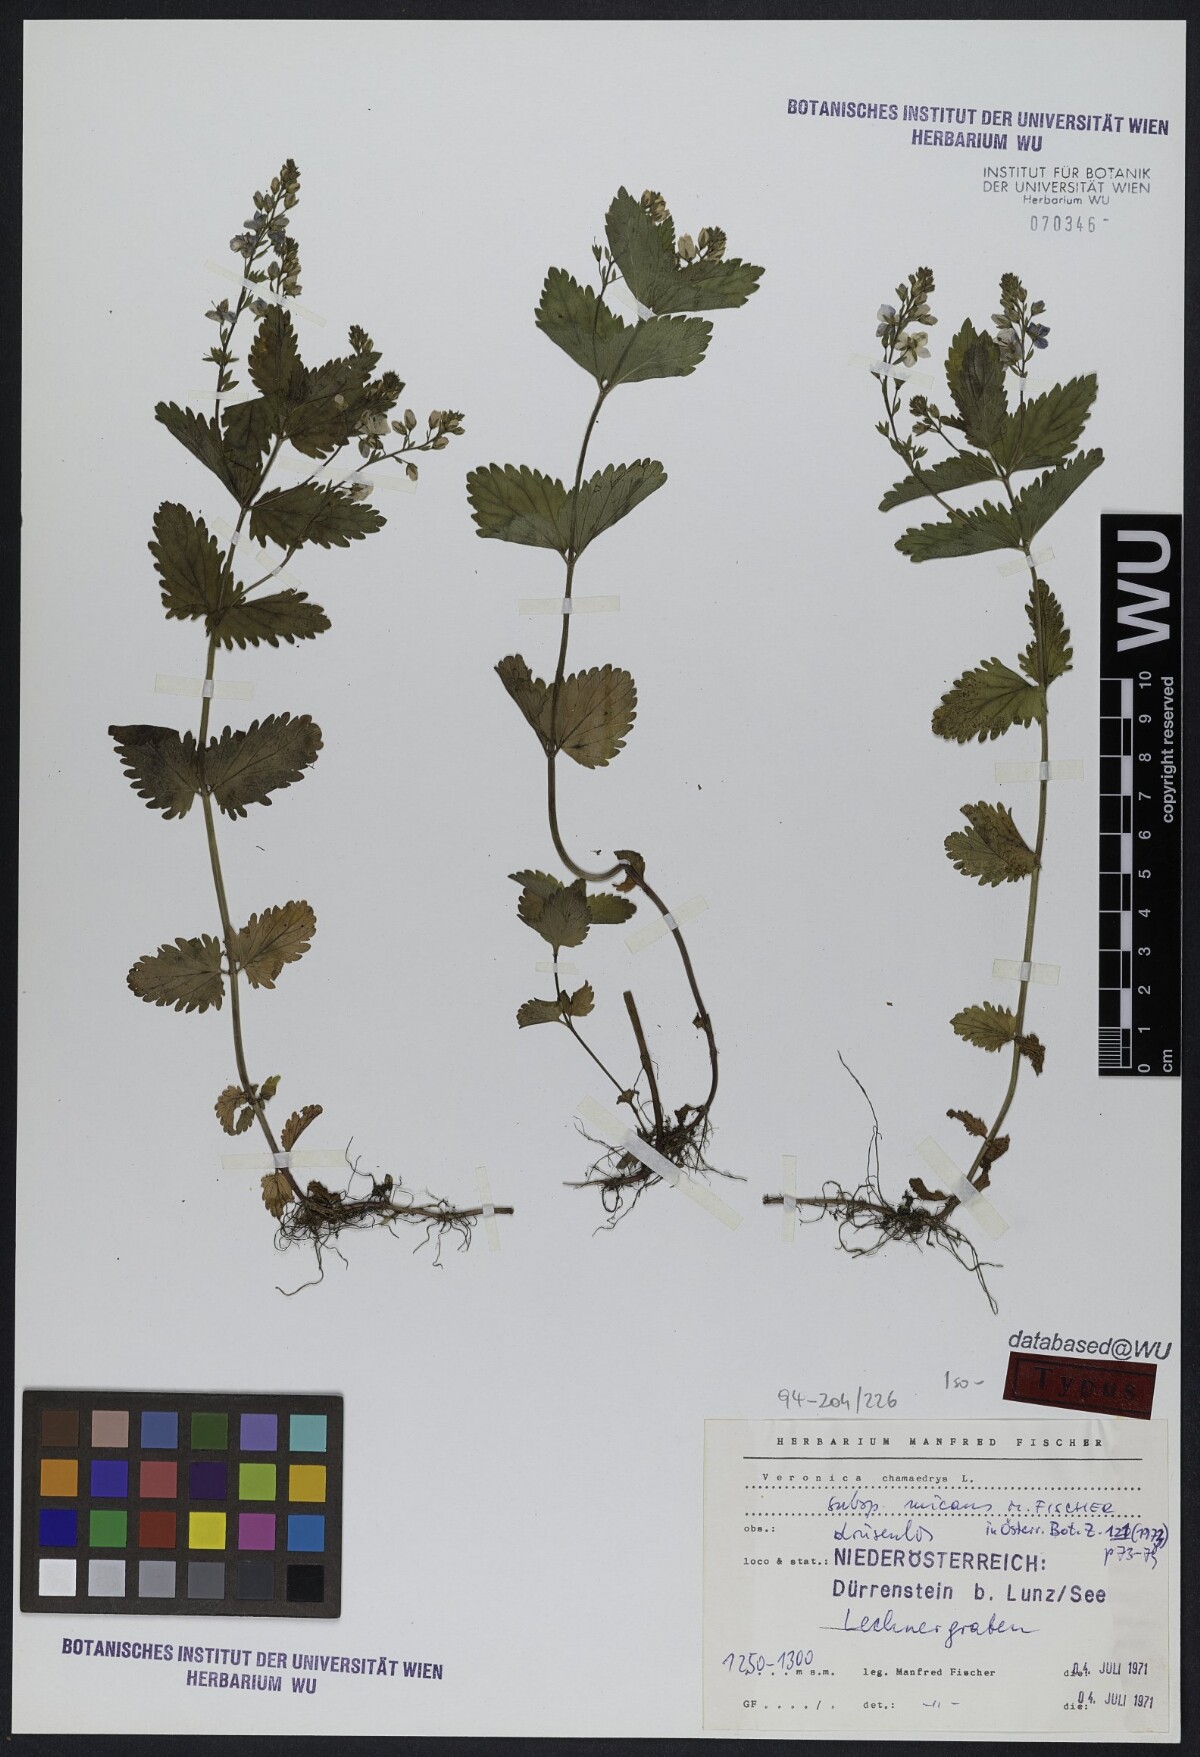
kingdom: Plantae
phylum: Tracheophyta
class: Magnoliopsida
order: Lamiales
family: Plantaginaceae
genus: Veronica
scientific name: Veronica chamaedrys
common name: Germander speedwell
